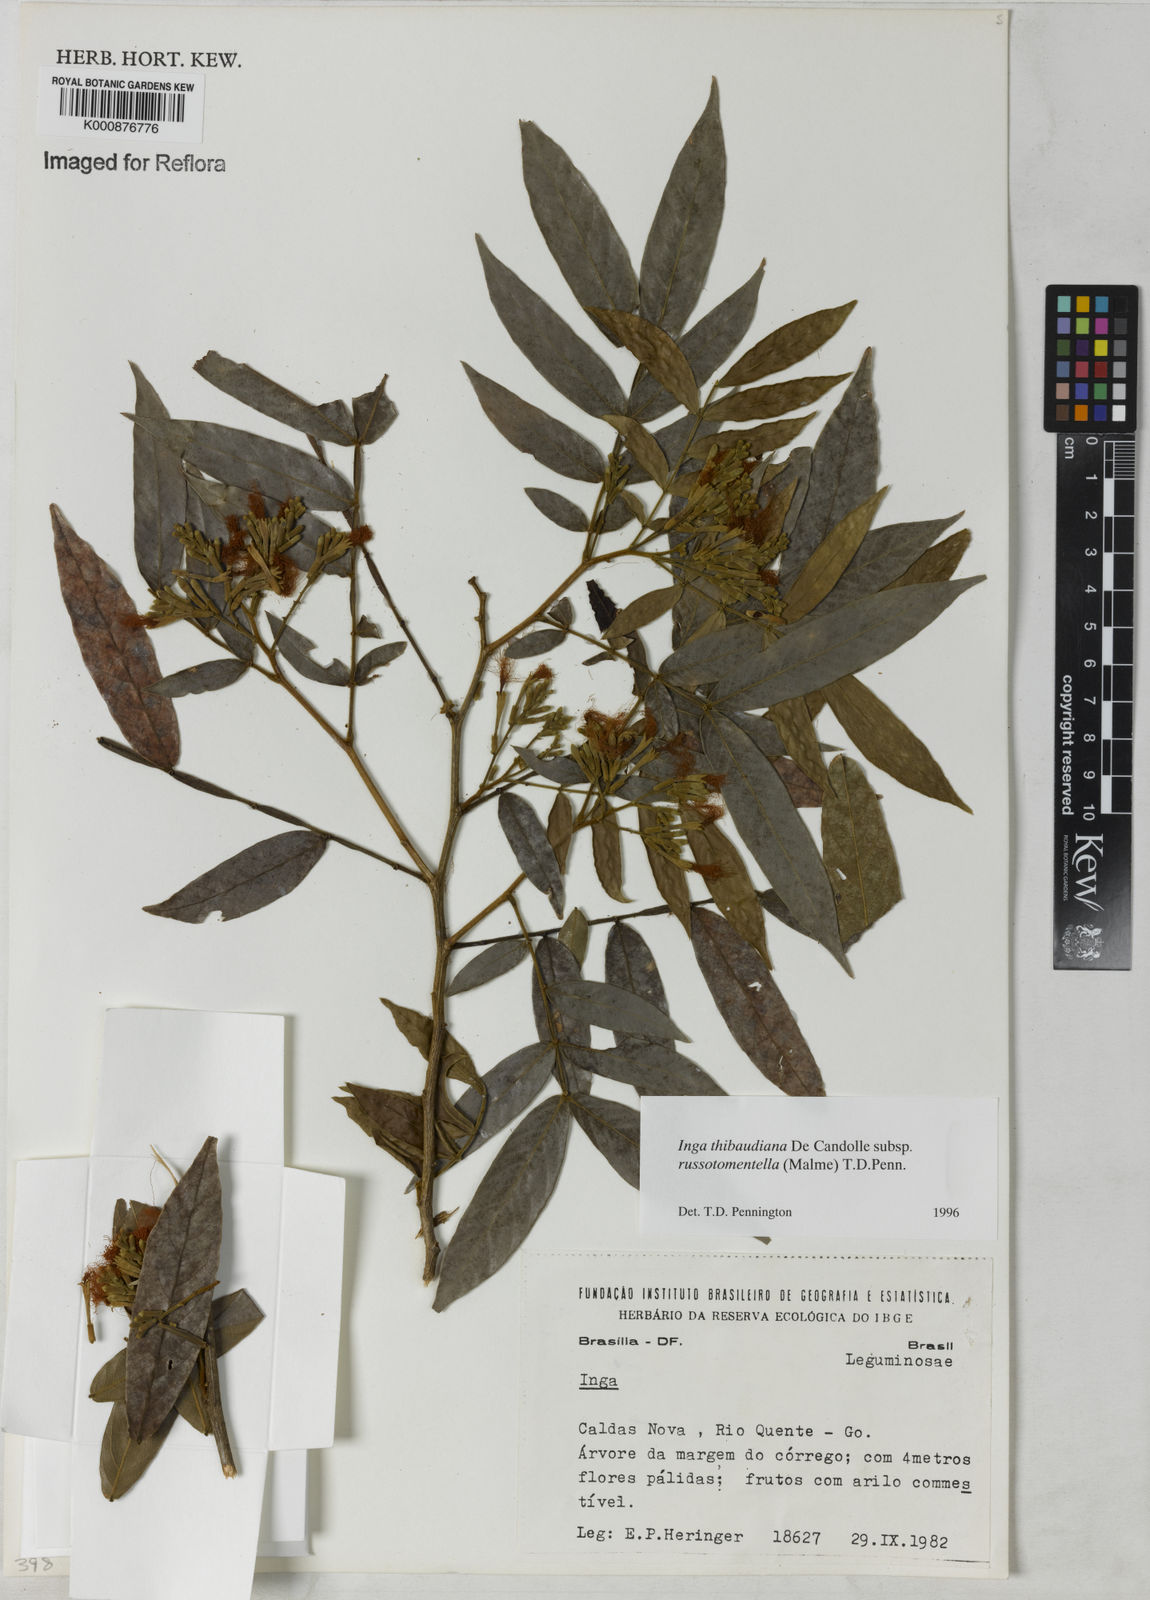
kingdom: Plantae
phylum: Tracheophyta
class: Magnoliopsida
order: Fabales
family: Fabaceae
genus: Inga
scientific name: Inga thibaudiana
